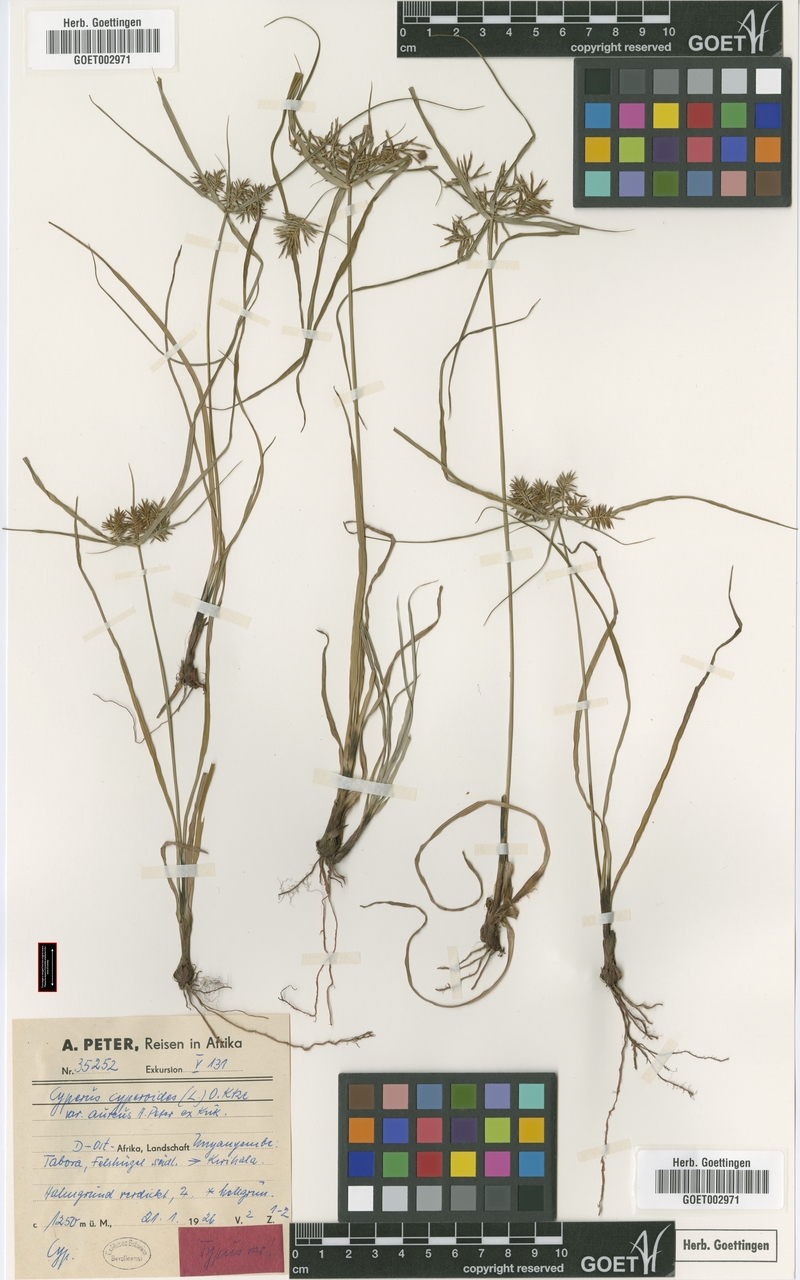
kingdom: Plantae
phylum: Tracheophyta
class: Liliopsida
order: Poales
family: Cyperaceae
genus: Cyperus
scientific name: Cyperus cyperoides
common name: Pacific island flat sedge
